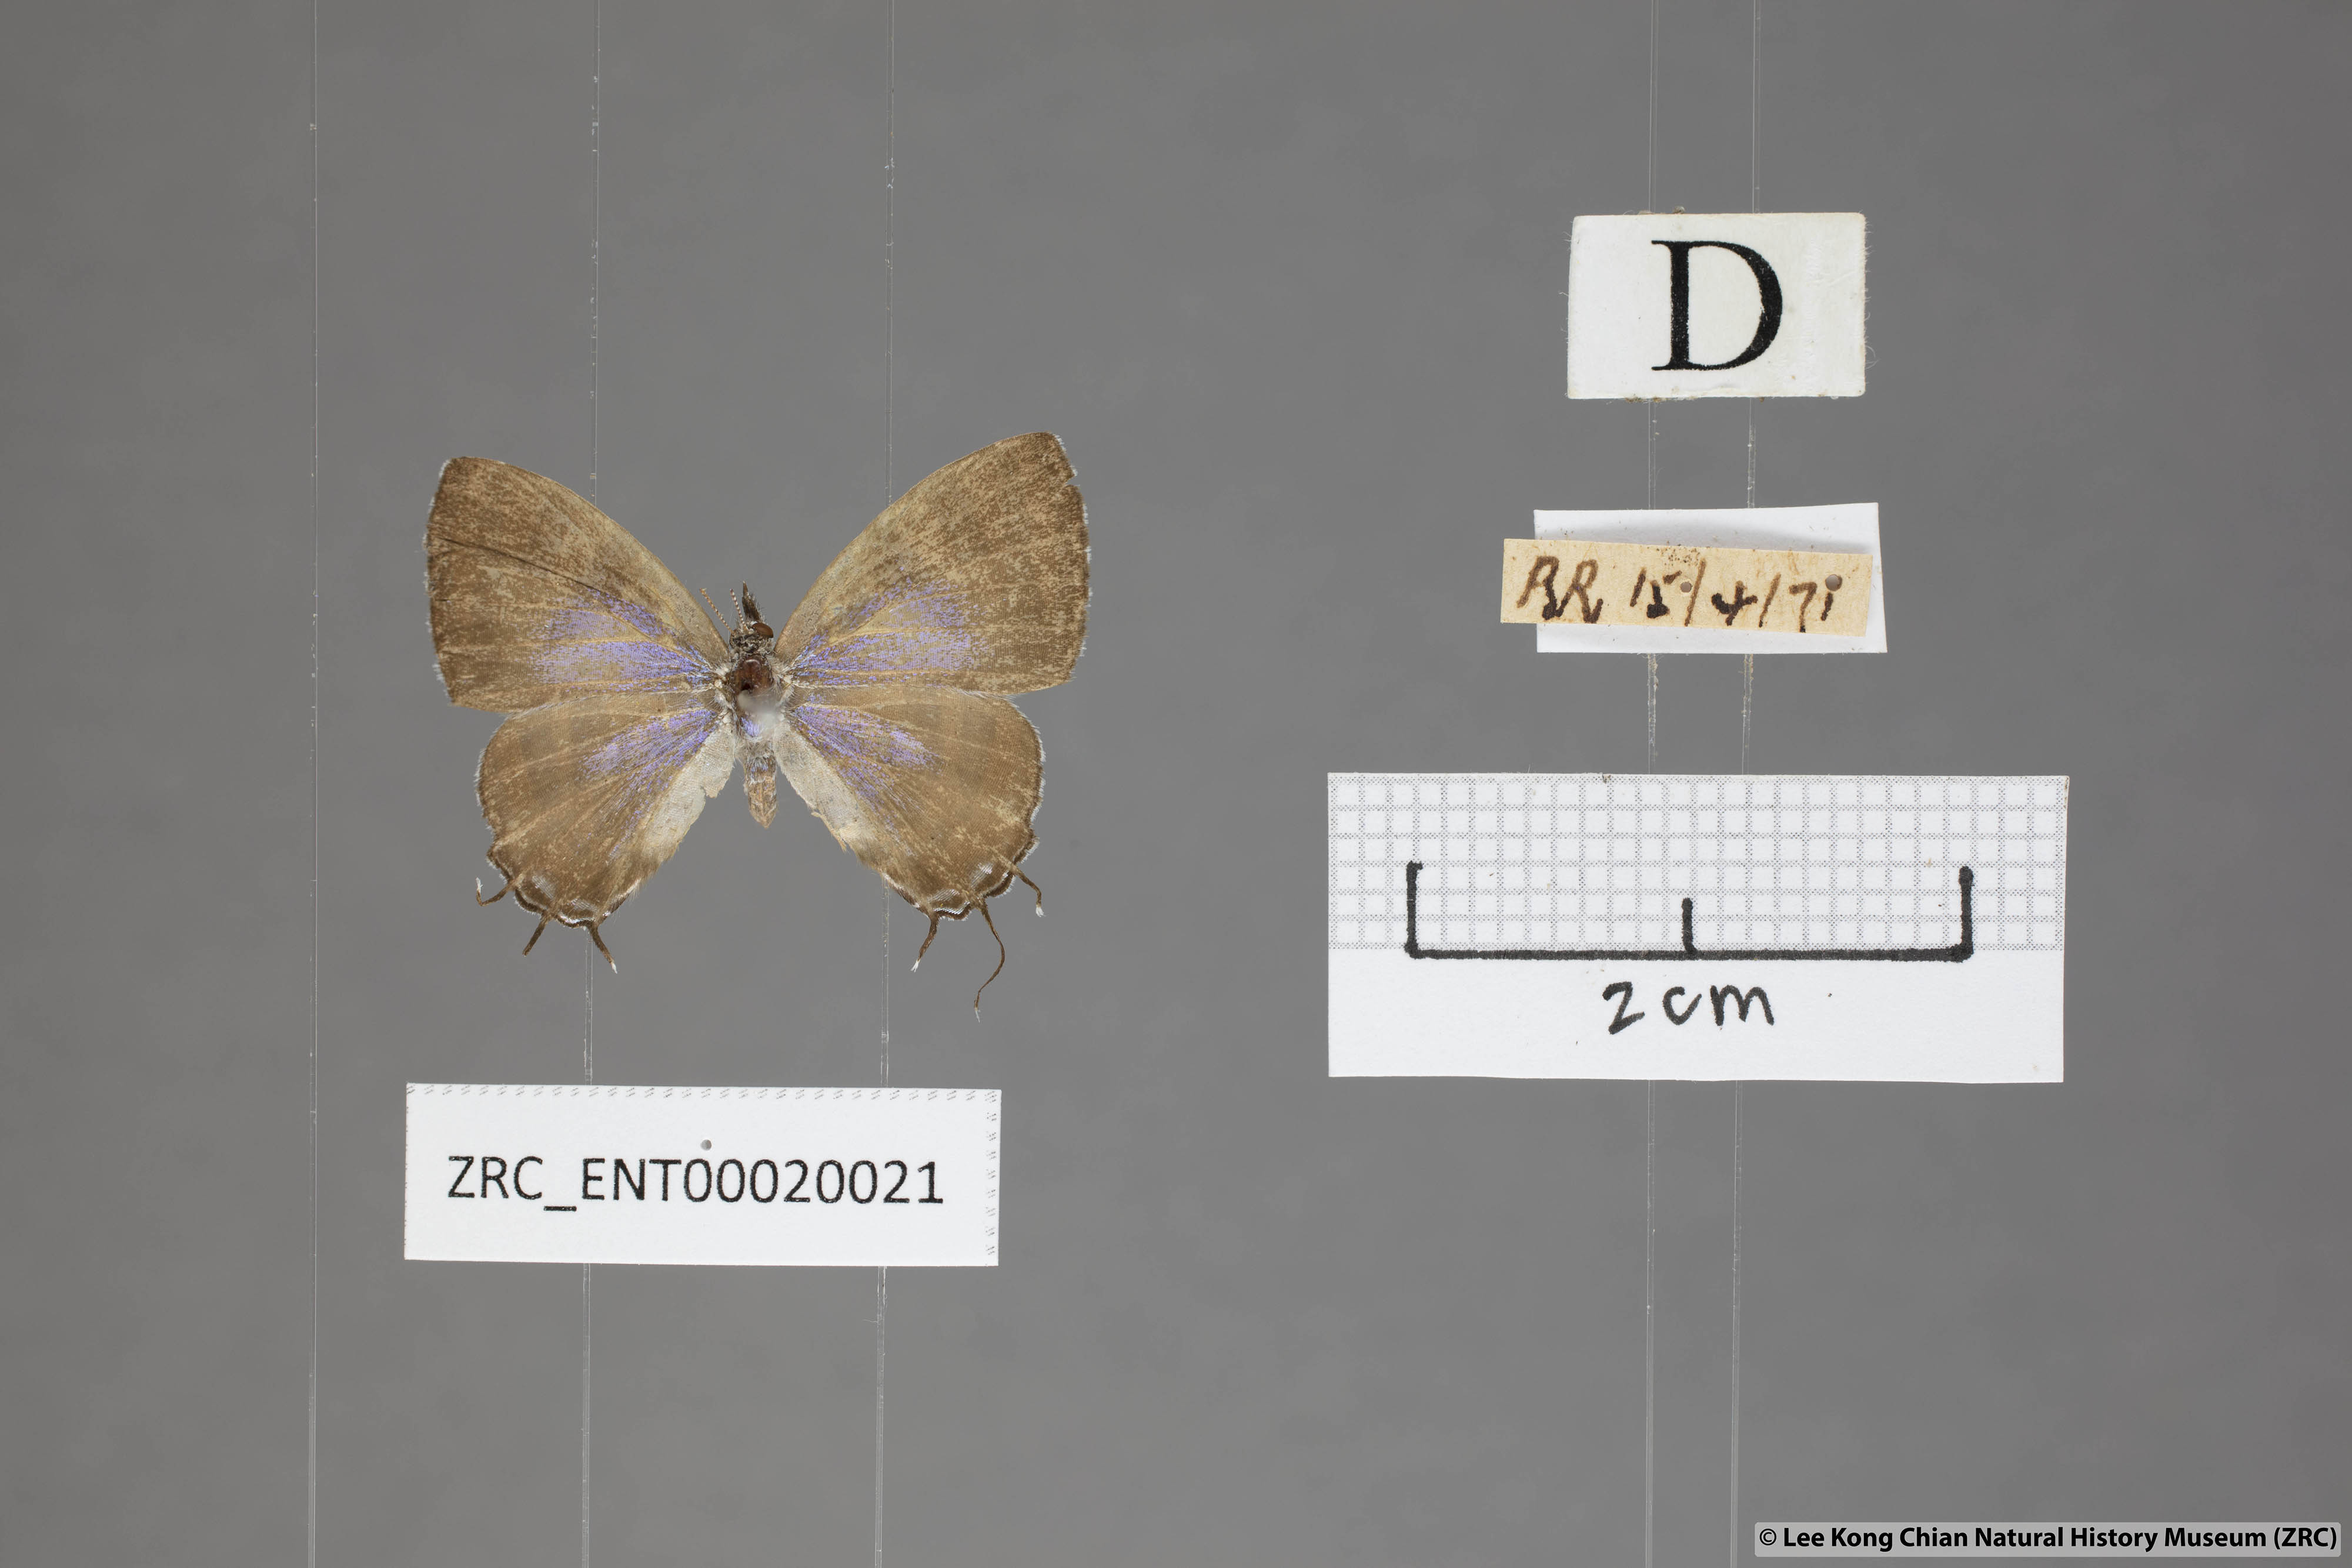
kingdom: Animalia
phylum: Arthropoda
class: Insecta
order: Lepidoptera
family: Lycaenidae
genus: Catapaecilma
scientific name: Catapaecilma subochrea
